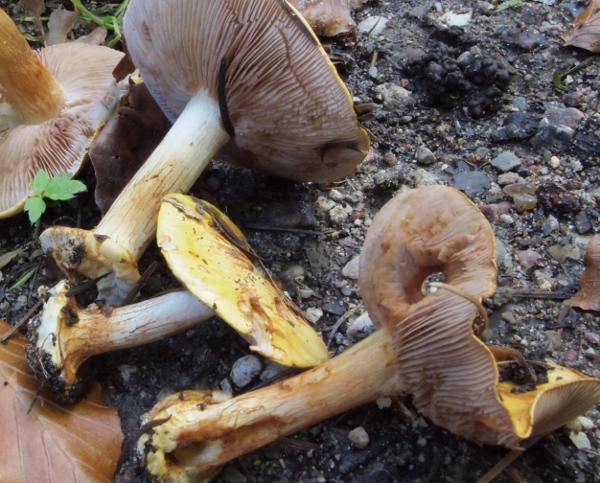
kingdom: Fungi
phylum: Basidiomycota
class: Agaricomycetes
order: Agaricales
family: Cortinariaceae
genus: Calonarius
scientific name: Calonarius callochrous
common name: lillabladet slørhat
